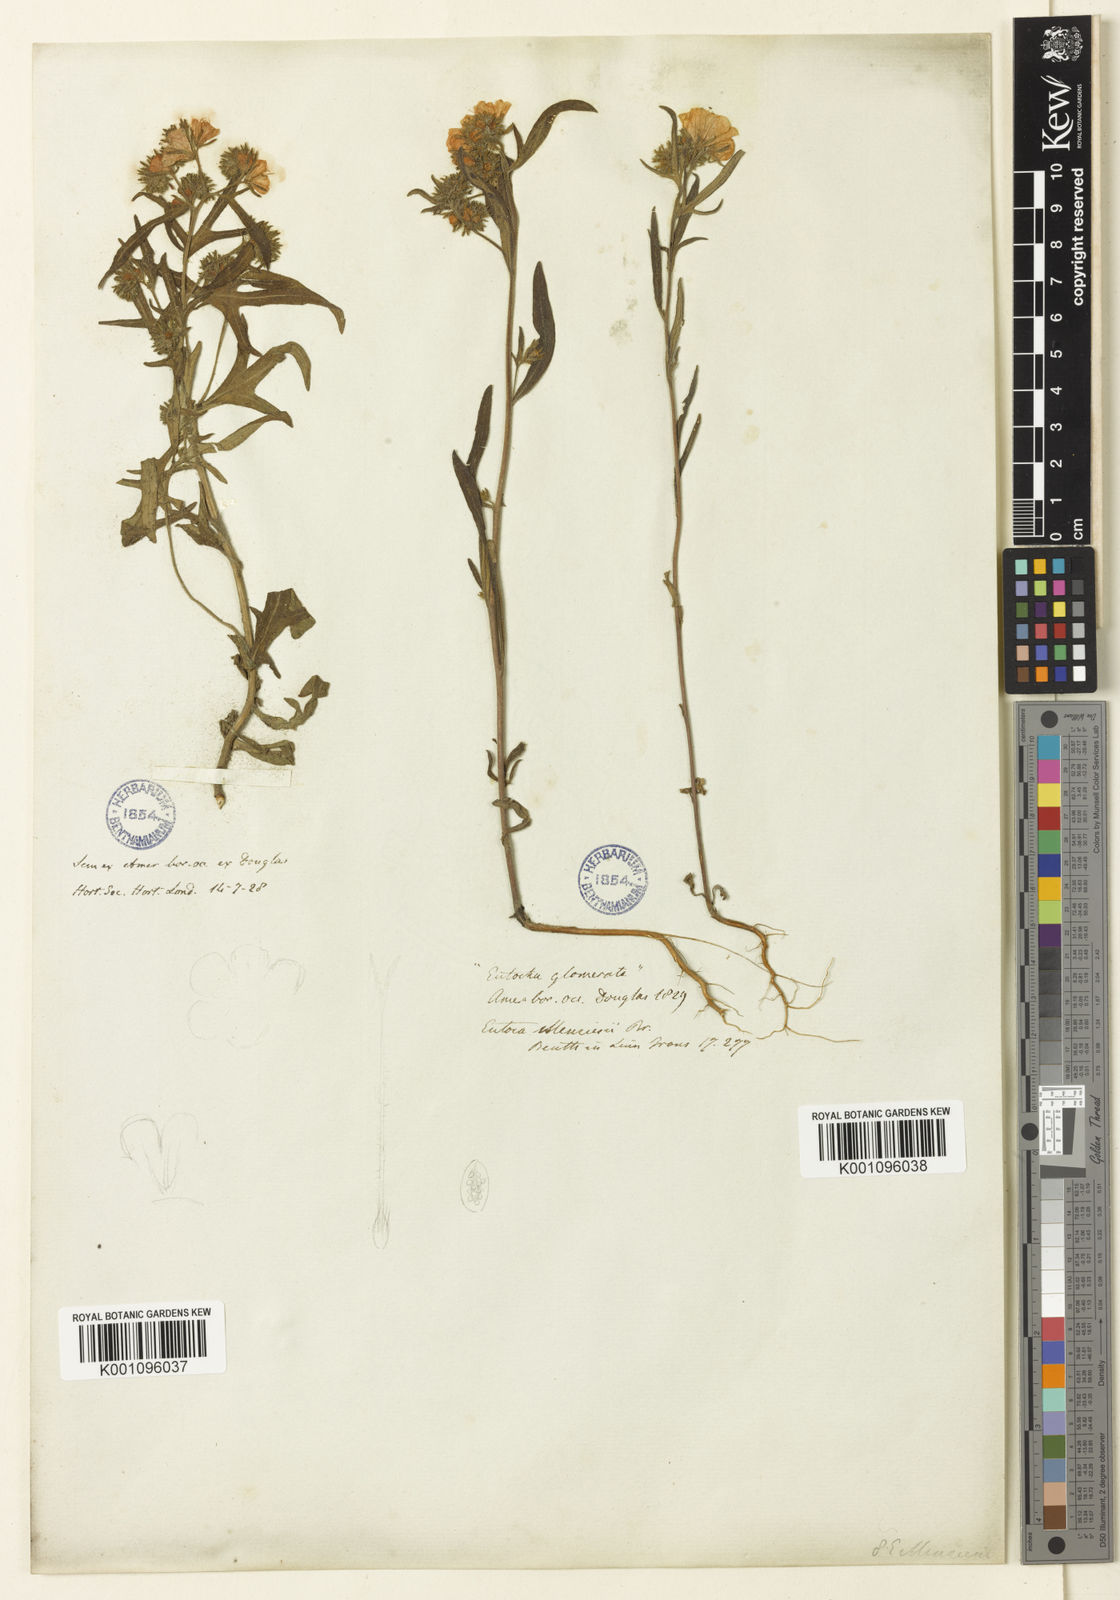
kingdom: Plantae
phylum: Tracheophyta
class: Magnoliopsida
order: Boraginales
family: Hydrophyllaceae
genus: Phacelia
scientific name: Phacelia linearis
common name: Linear-leaved phacelia
